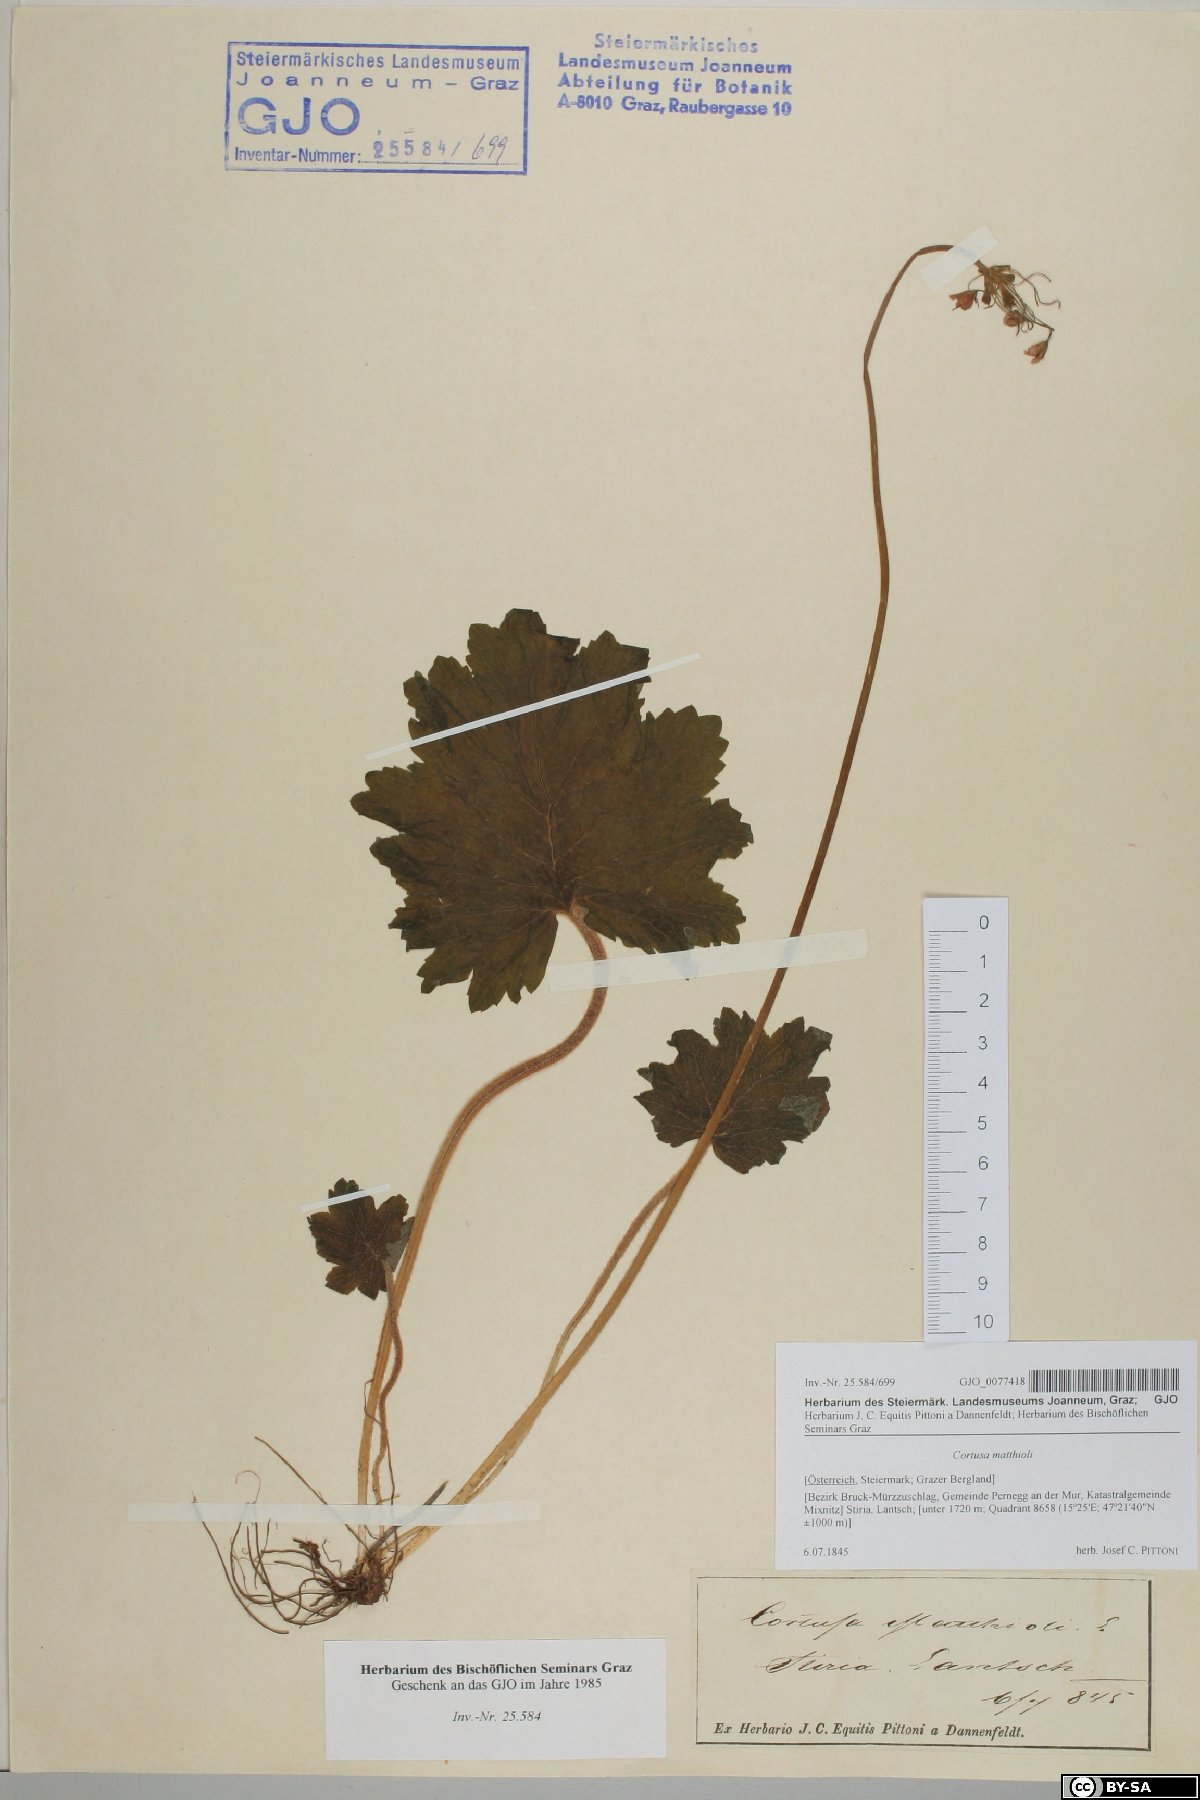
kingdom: Plantae
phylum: Tracheophyta
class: Magnoliopsida
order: Ericales
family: Primulaceae
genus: Primula
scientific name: Primula matthioli
